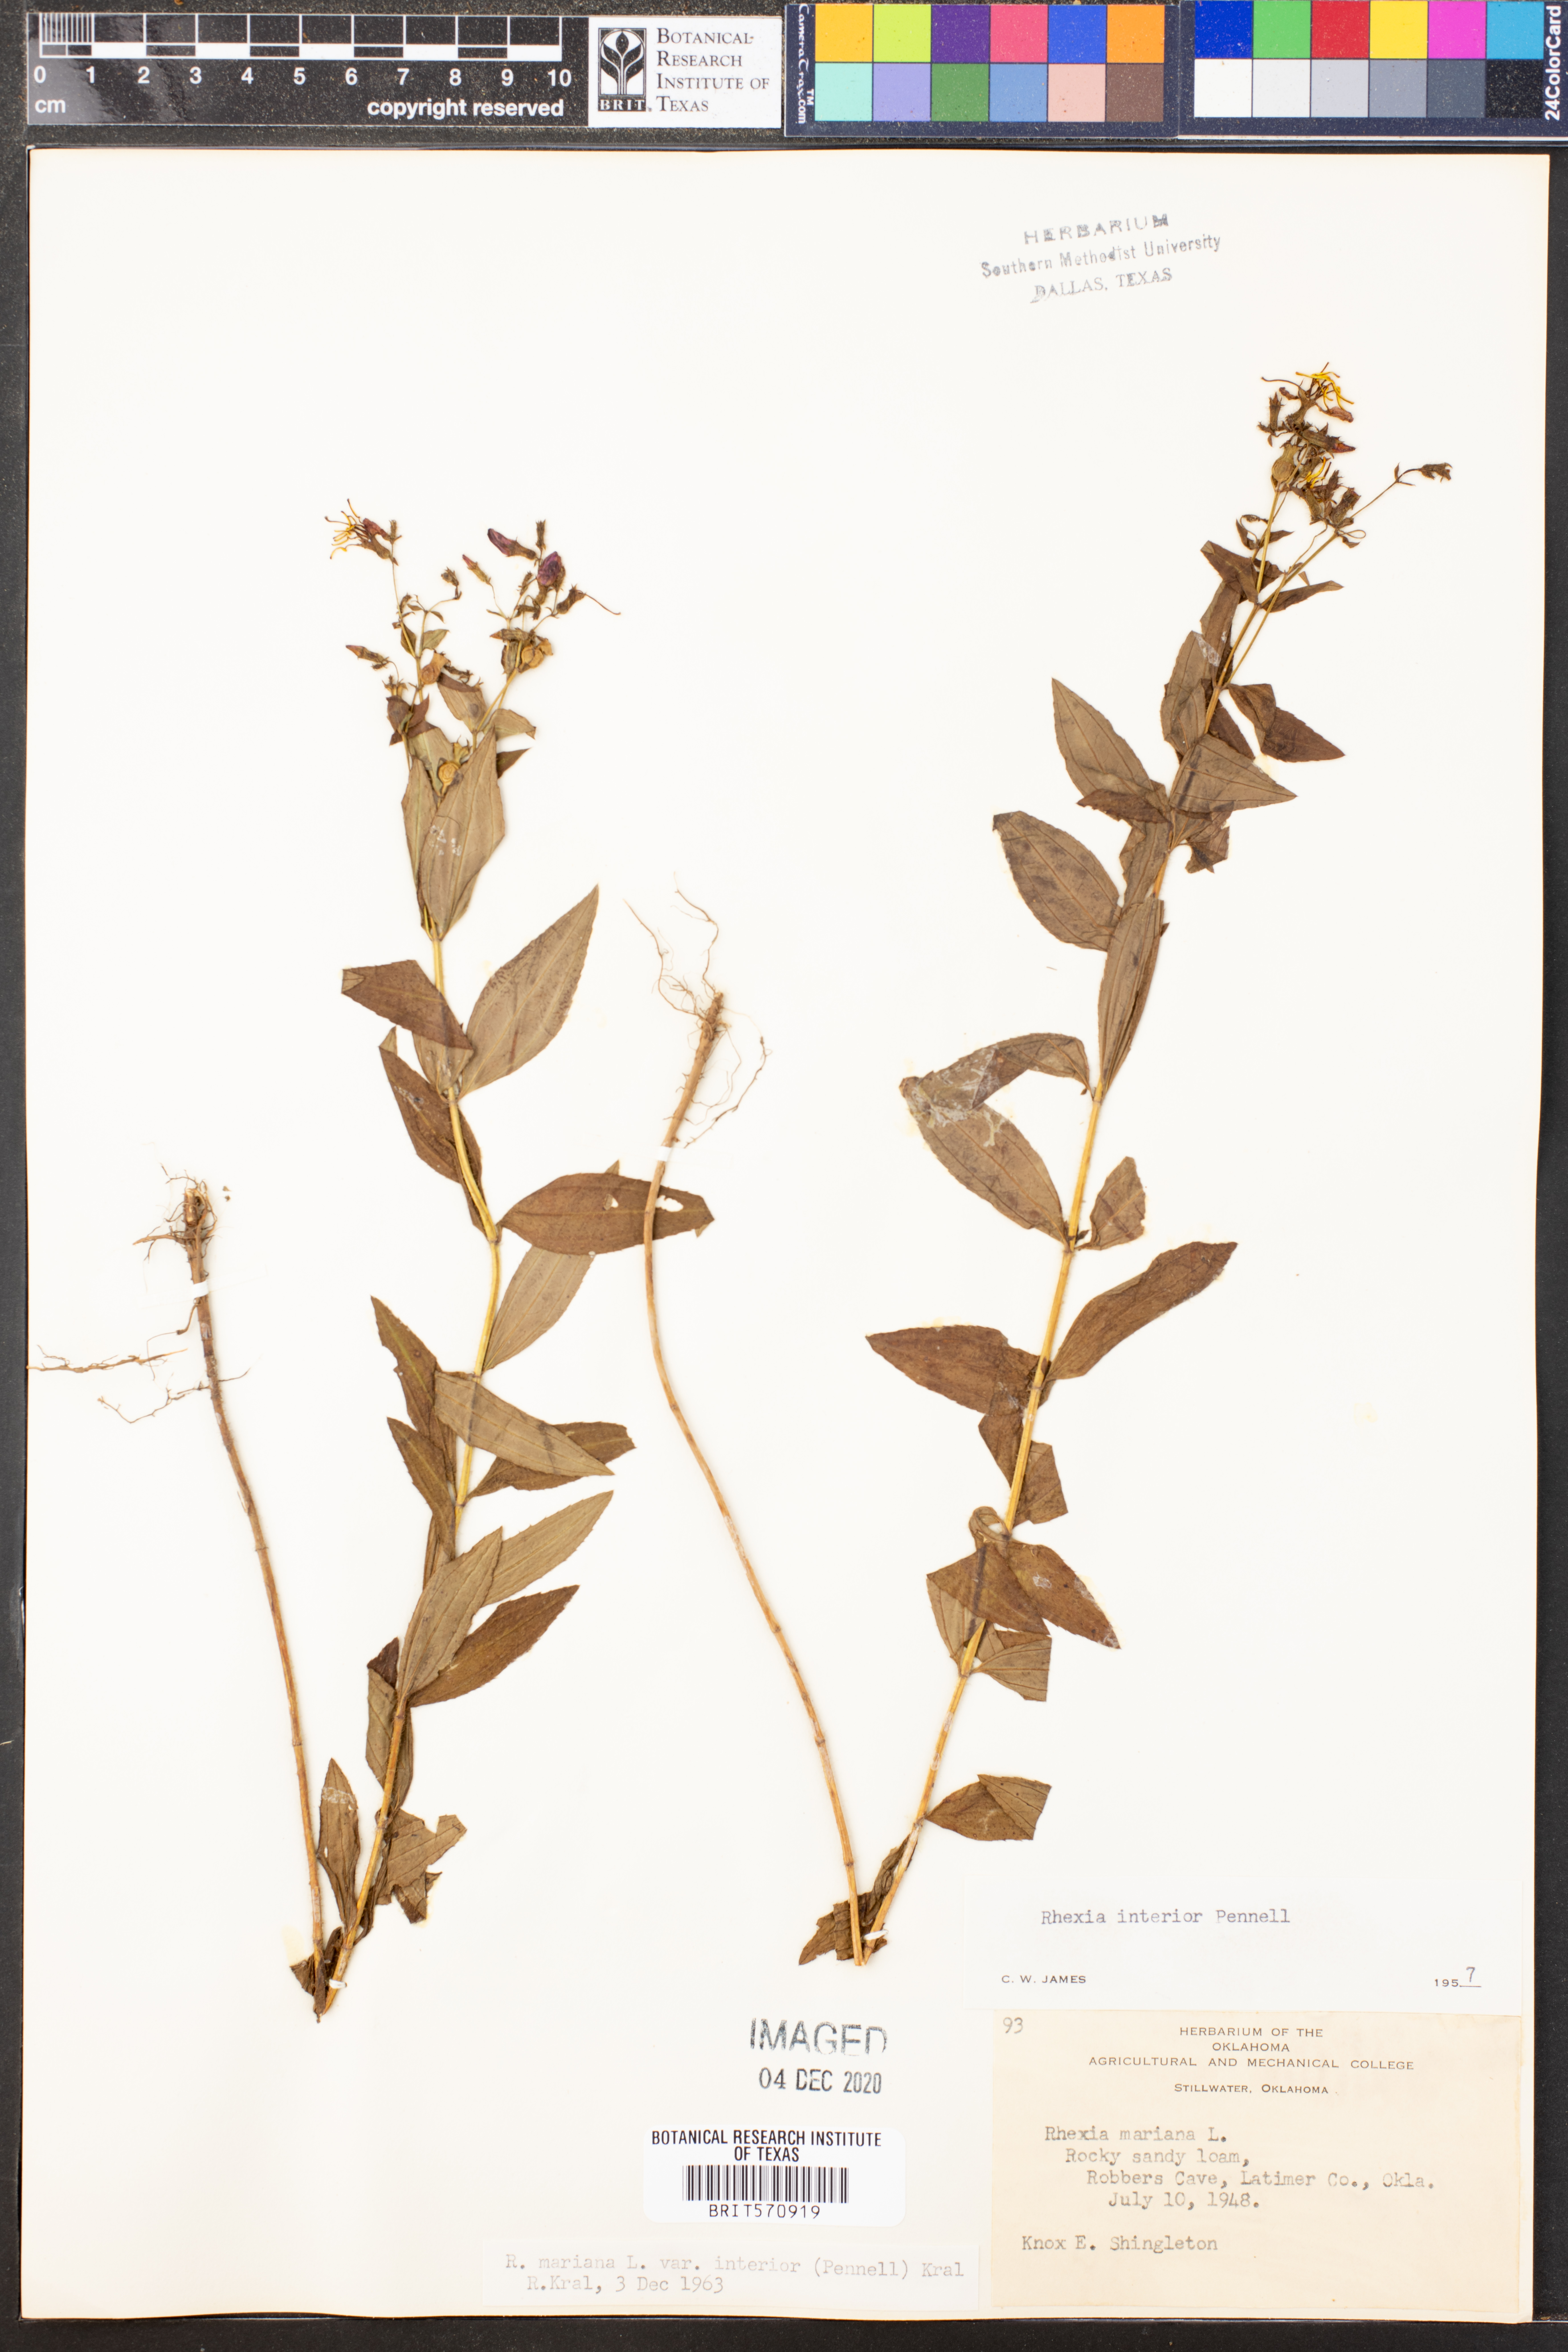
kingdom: Plantae
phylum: Tracheophyta
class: Magnoliopsida
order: Myrtales
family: Melastomataceae
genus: Rhexia
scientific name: Rhexia interior
